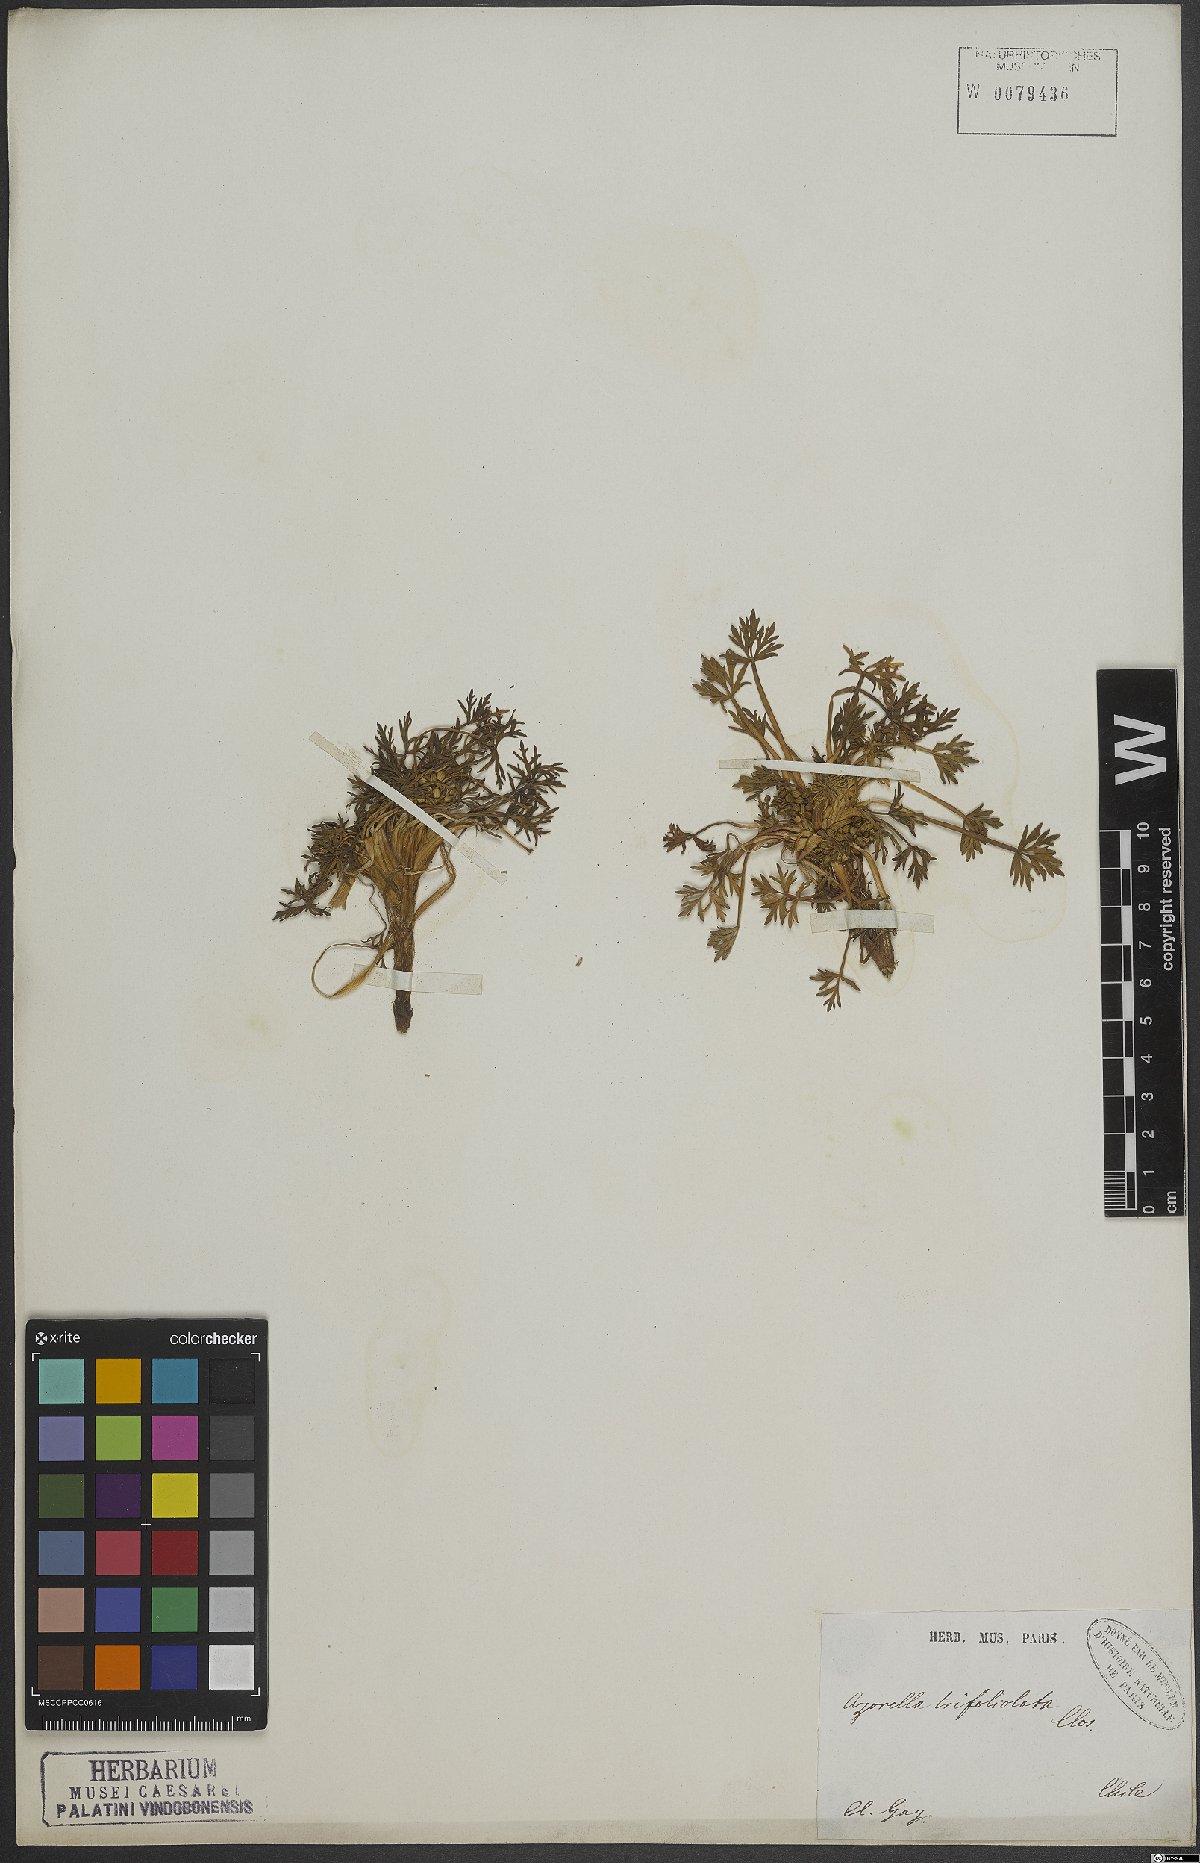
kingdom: Plantae
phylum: Tracheophyta
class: Magnoliopsida
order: Apiales
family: Apiaceae
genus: Azorella
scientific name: Azorella trifoliolata
